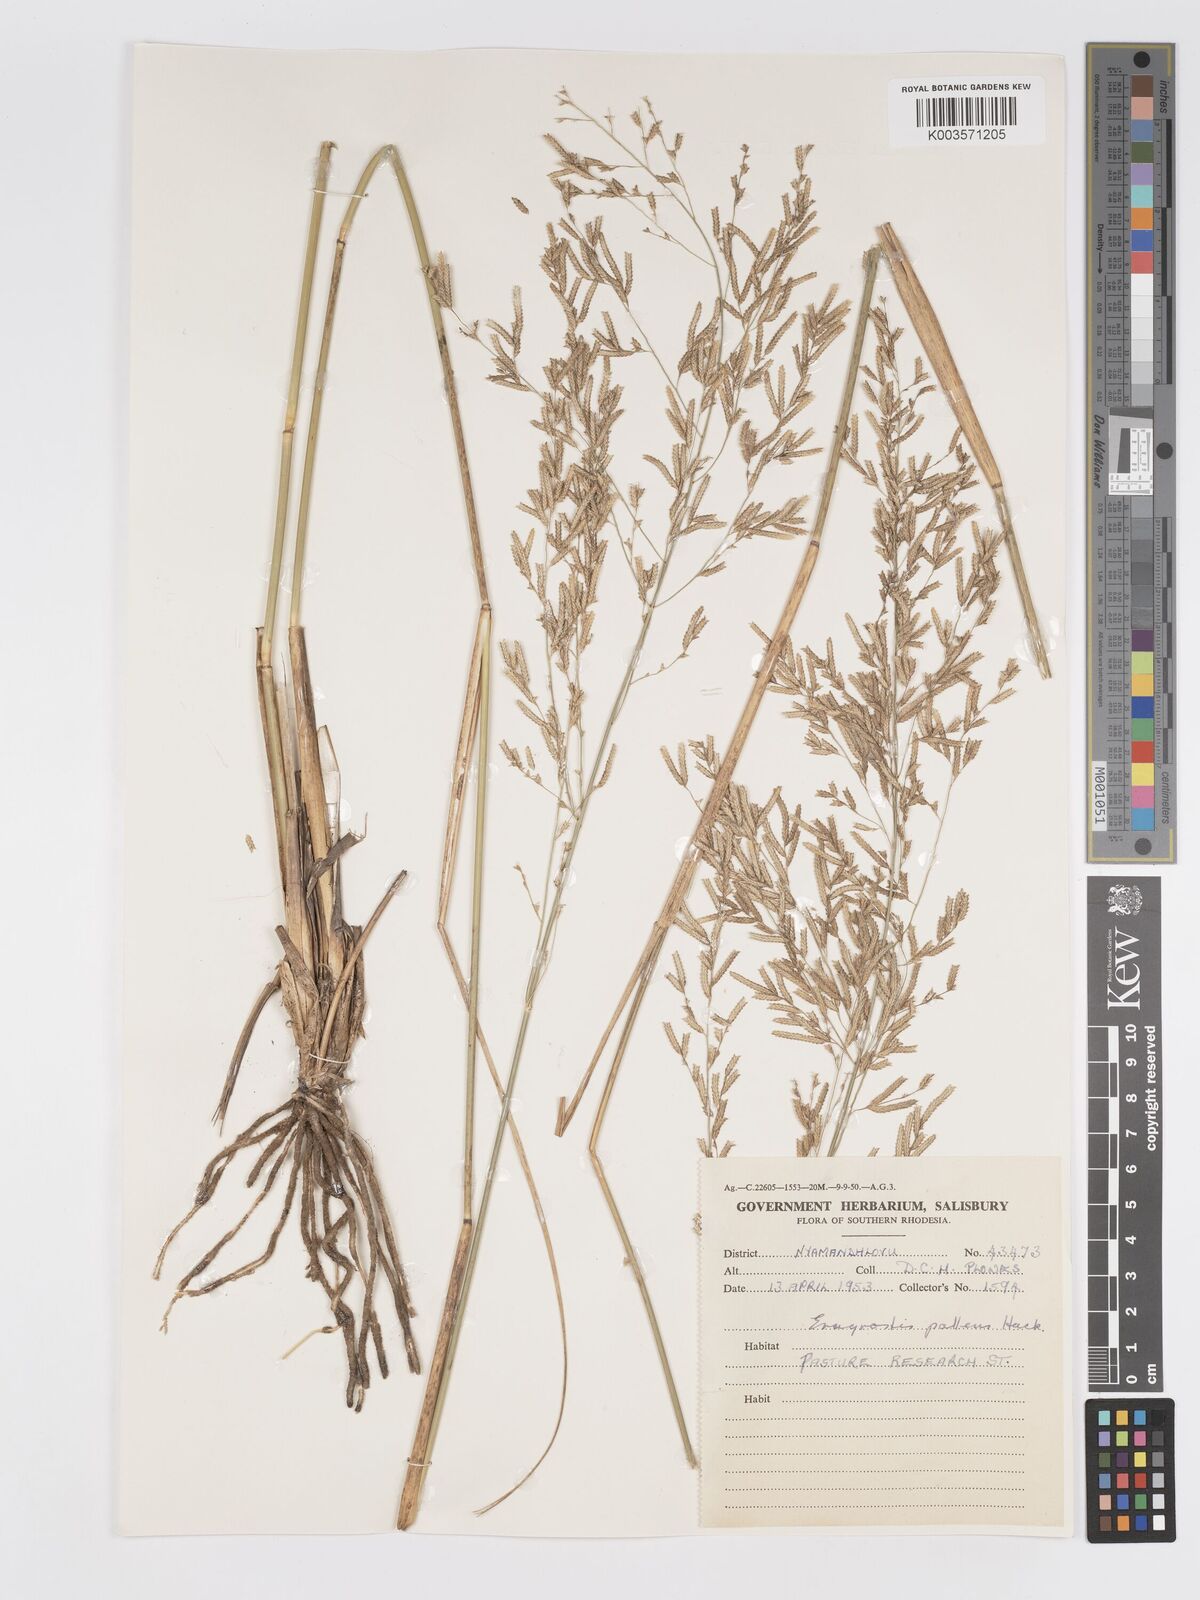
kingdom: Plantae
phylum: Tracheophyta
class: Liliopsida
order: Poales
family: Poaceae
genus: Eragrostis
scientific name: Eragrostis pallens
